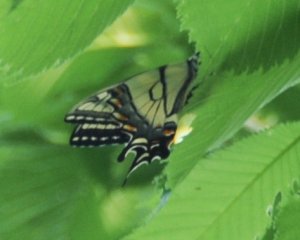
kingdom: Animalia
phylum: Arthropoda
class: Insecta
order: Lepidoptera
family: Papilionidae
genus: Pterourus
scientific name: Pterourus canadensis
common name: Canadian Tiger Swallowtail
